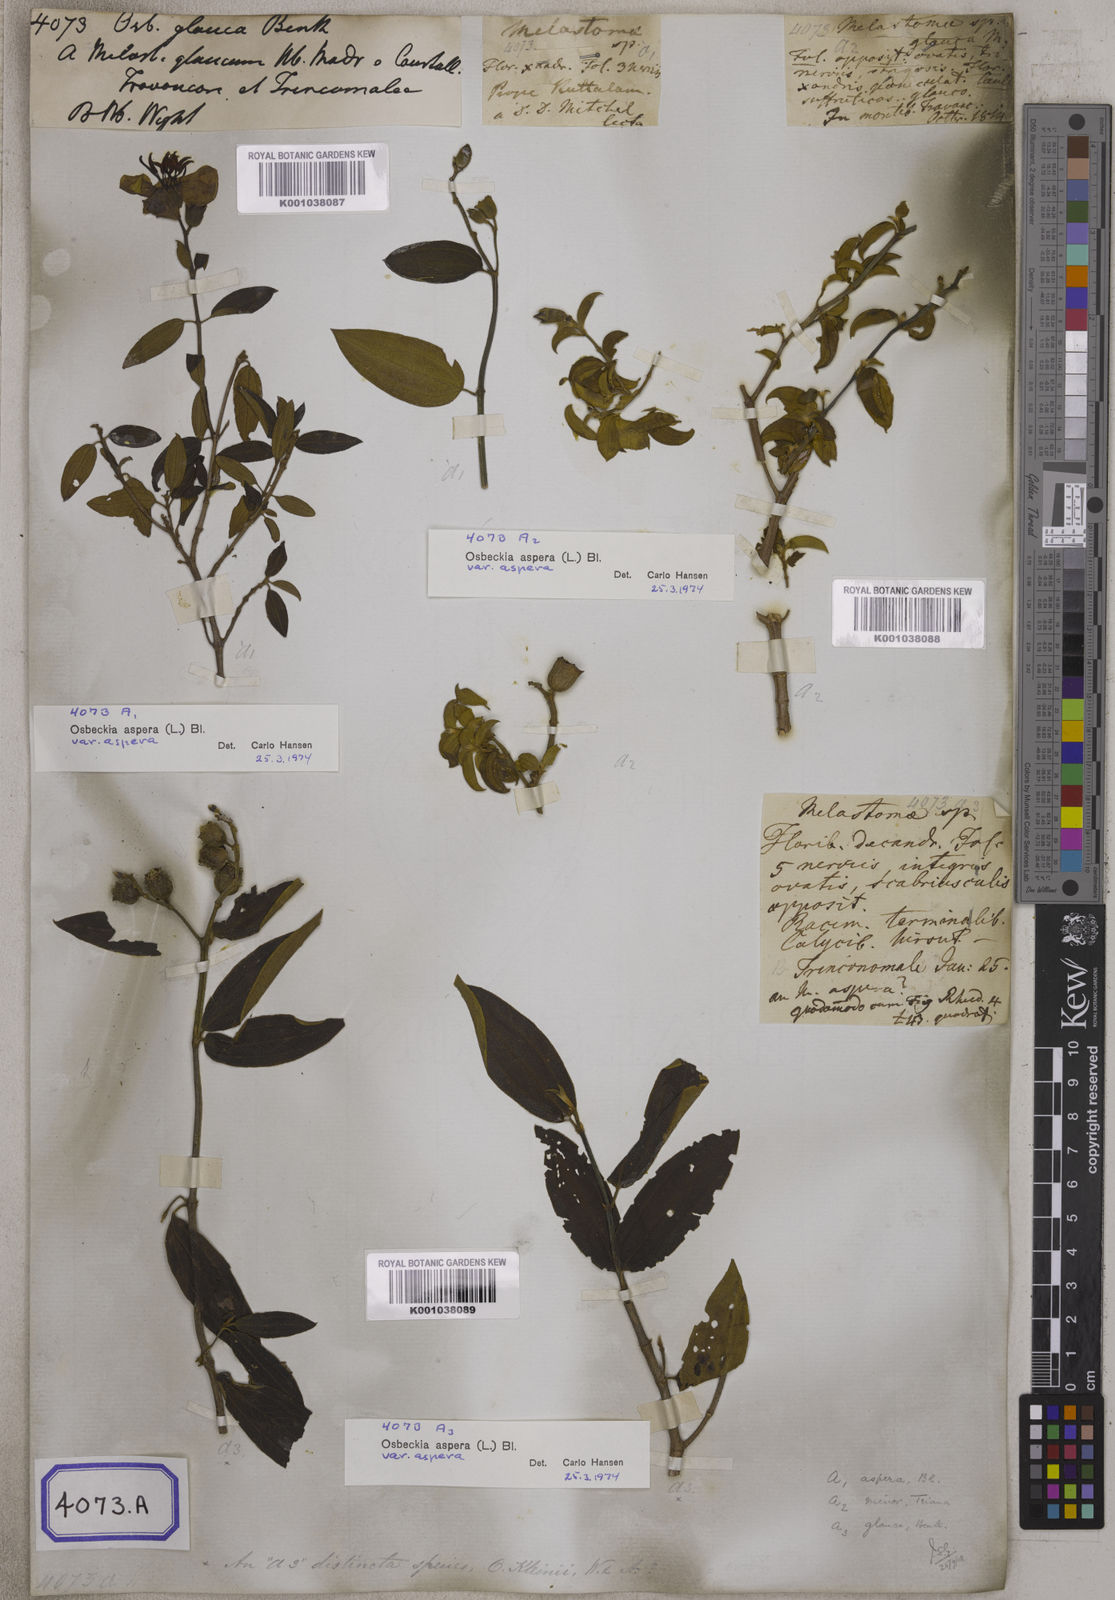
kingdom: Plantae
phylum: Tracheophyta
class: Magnoliopsida
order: Myrtales
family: Melastomataceae
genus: Osbeckia
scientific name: Osbeckia
